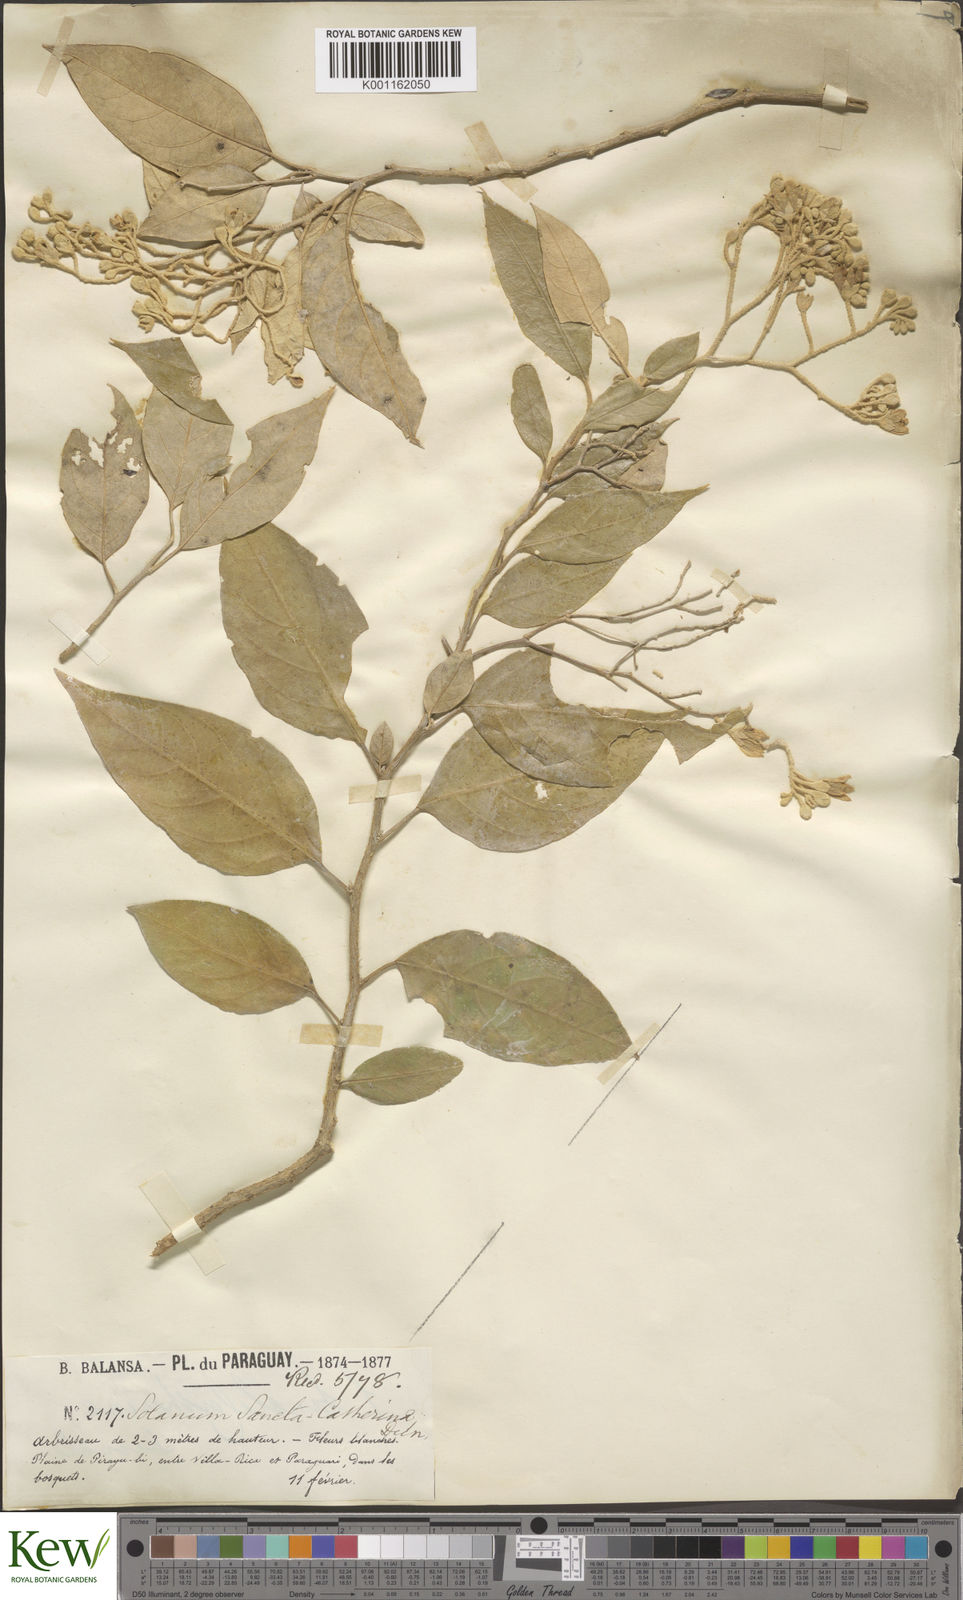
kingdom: Plantae
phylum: Tracheophyta
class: Magnoliopsida
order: Solanales
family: Solanaceae
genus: Solanum
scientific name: Solanum sanctae-catharinae
